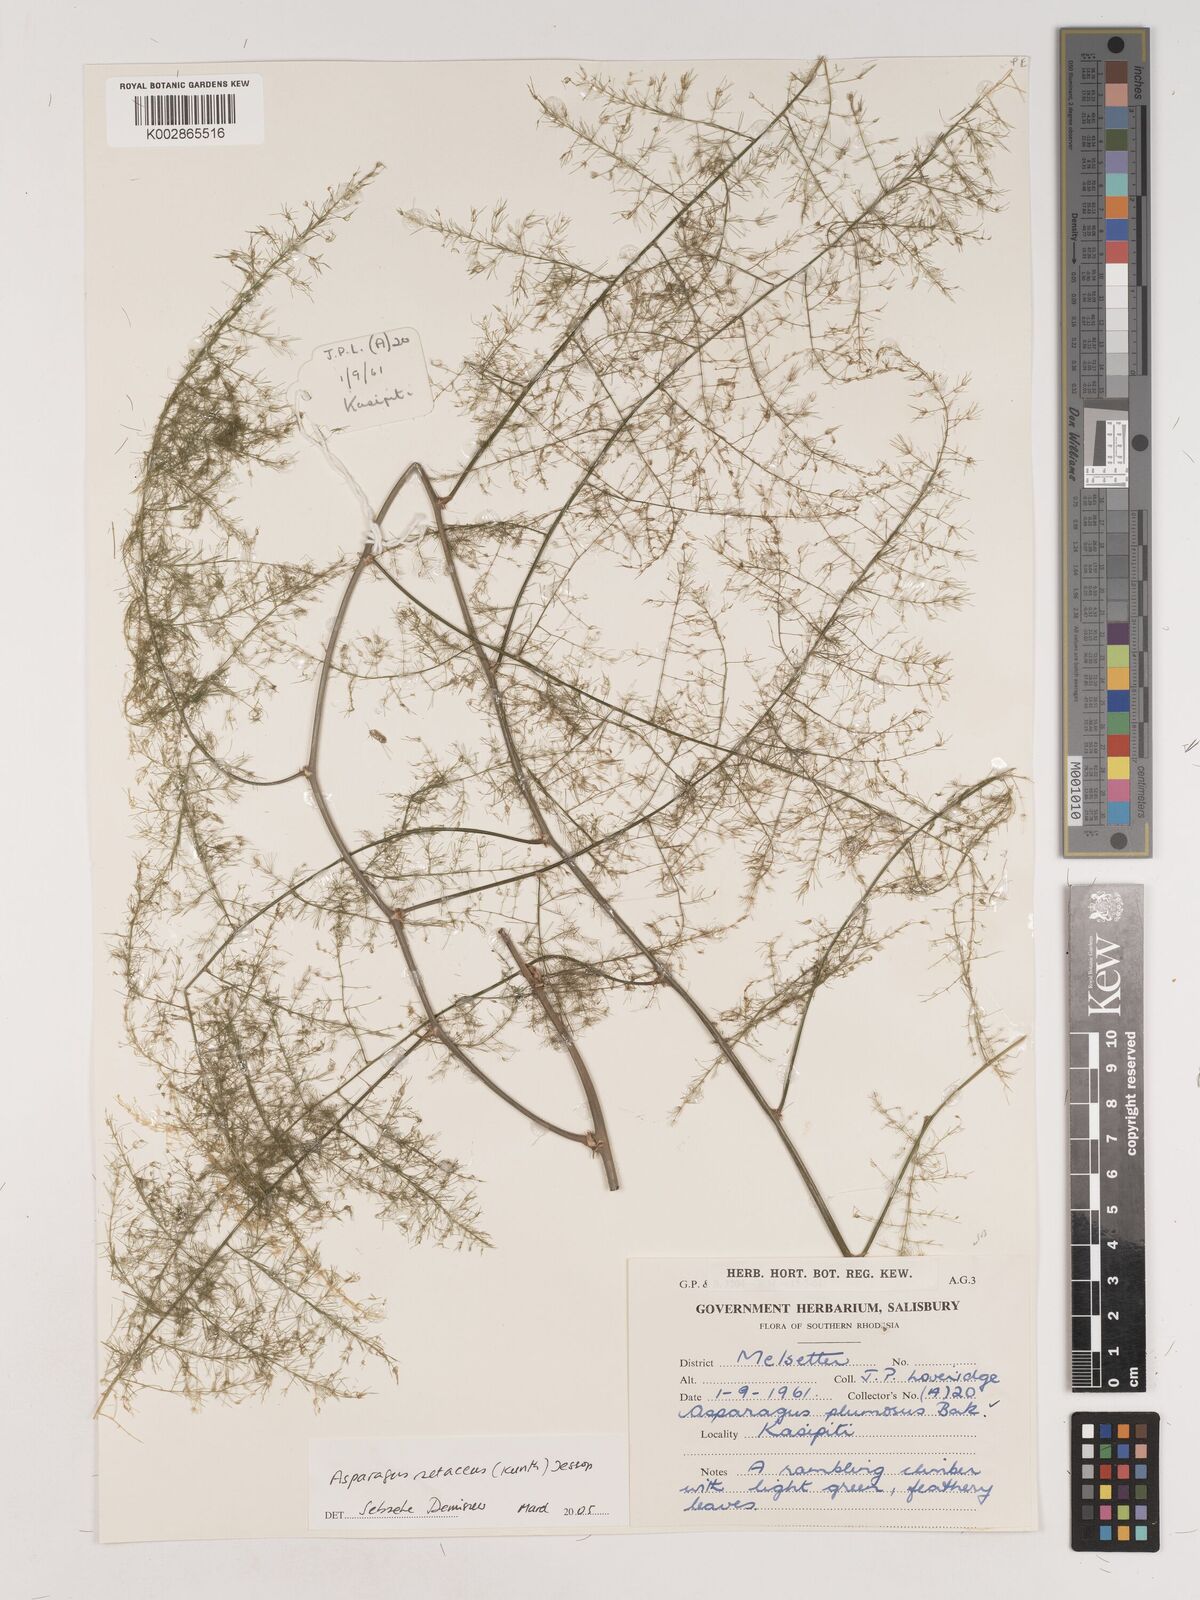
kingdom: Plantae
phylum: Tracheophyta
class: Liliopsida
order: Asparagales
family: Asparagaceae
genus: Asparagus
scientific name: Asparagus setaceus
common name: Common asparagus fern
